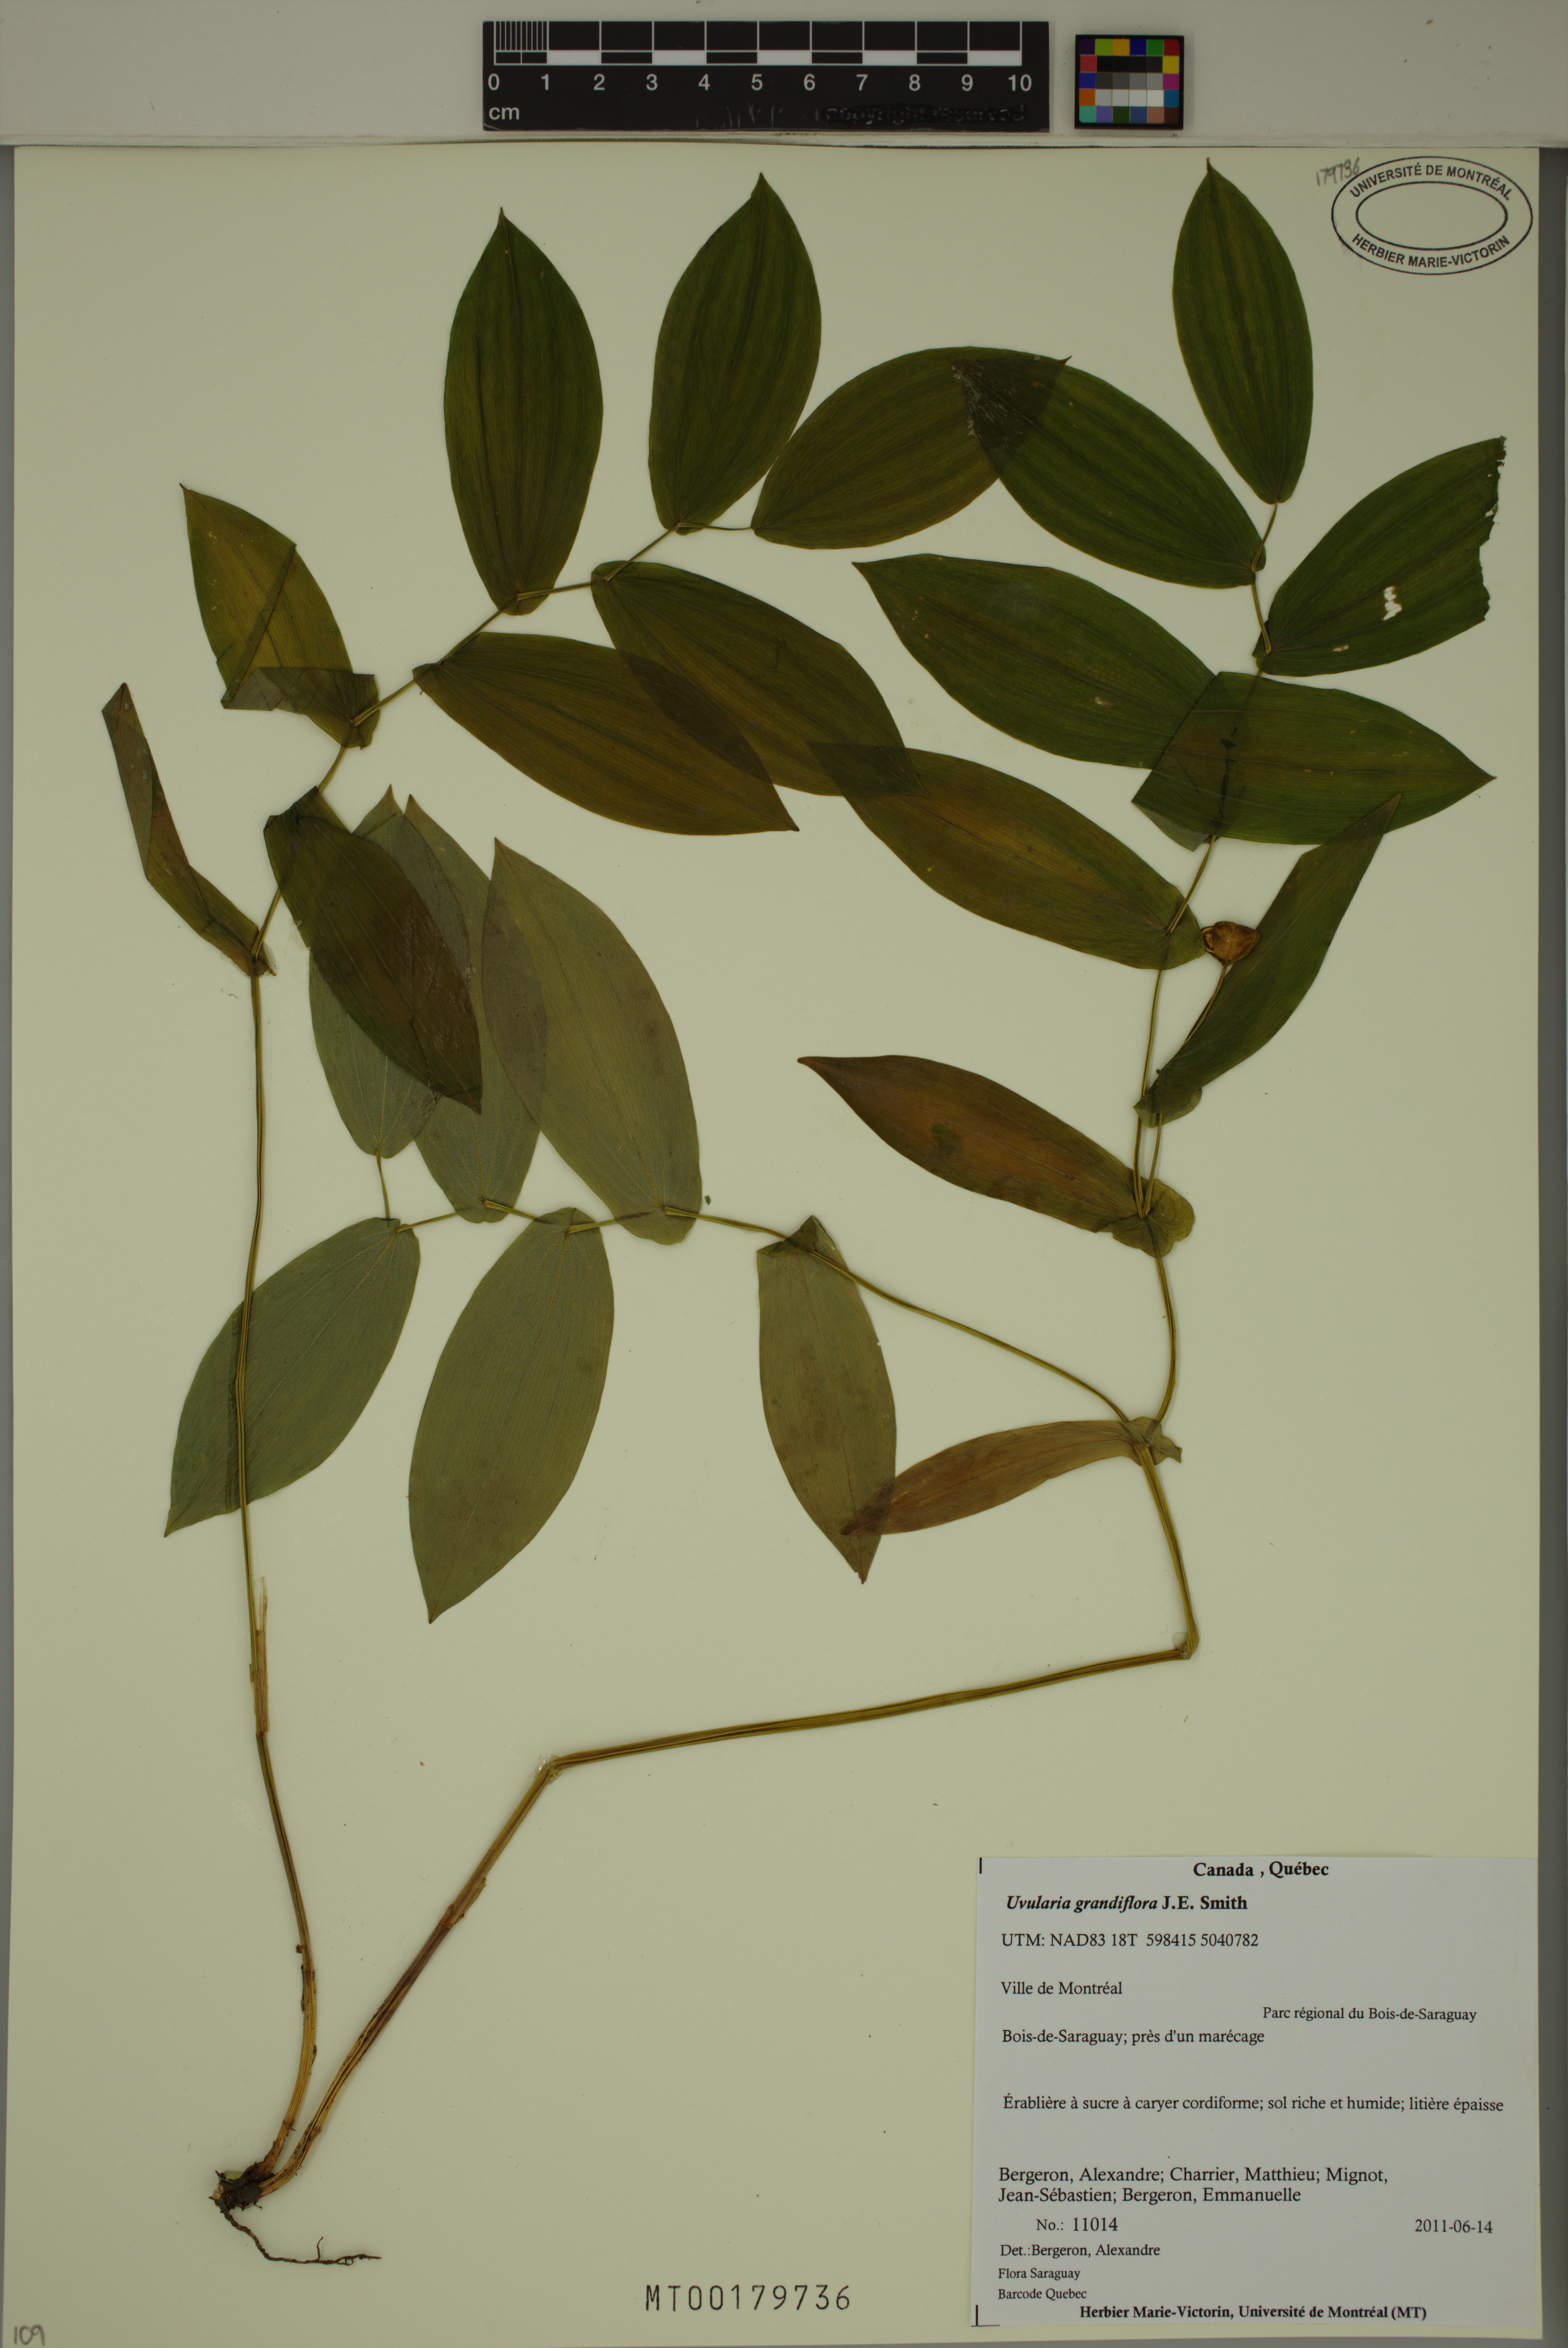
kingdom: Plantae
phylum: Tracheophyta
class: Liliopsida
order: Liliales
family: Colchicaceae
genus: Uvularia
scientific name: Uvularia grandiflora
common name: Bellwort
